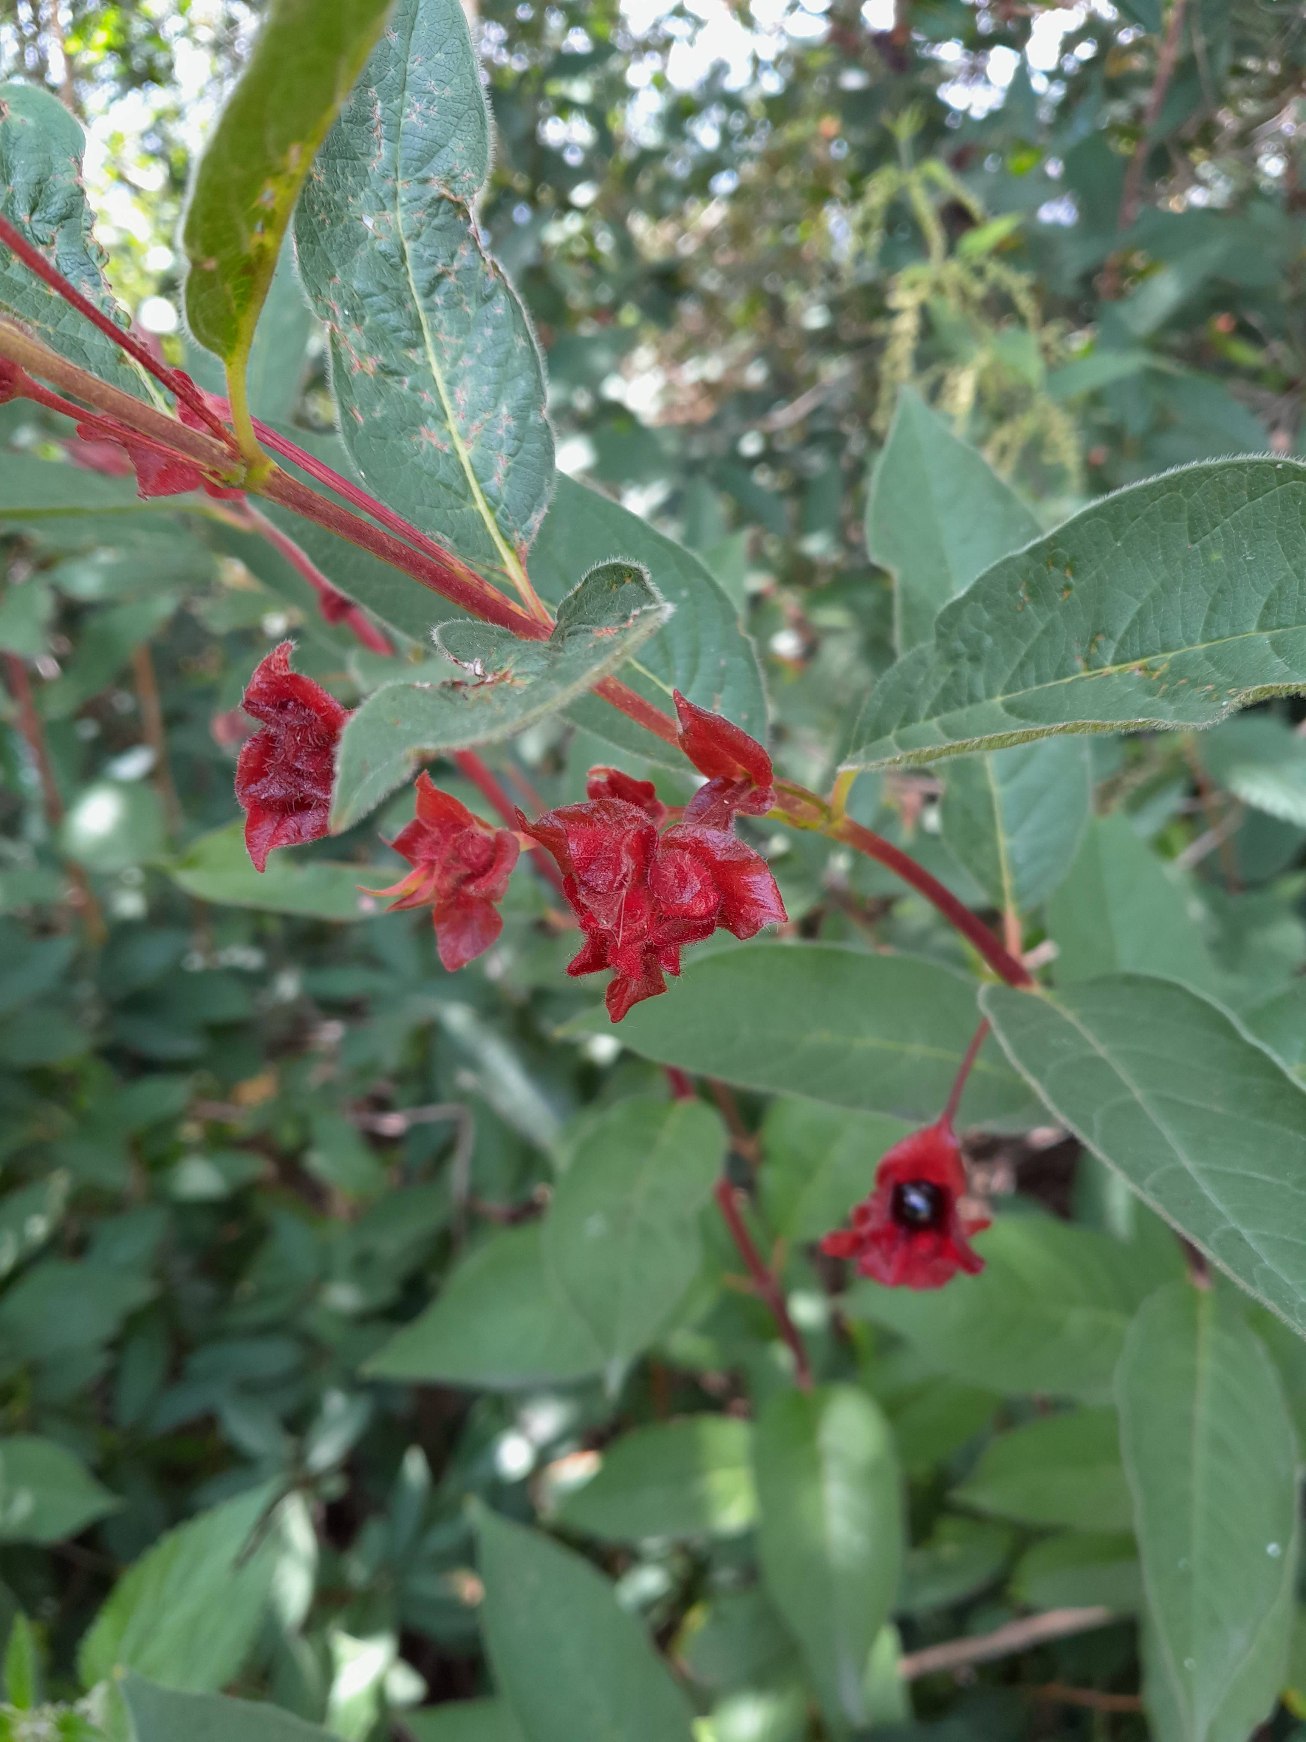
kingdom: Plantae
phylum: Tracheophyta
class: Magnoliopsida
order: Dipsacales
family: Caprifoliaceae
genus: Lonicera
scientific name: Lonicera involucrata
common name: Svøb-gedeblad
